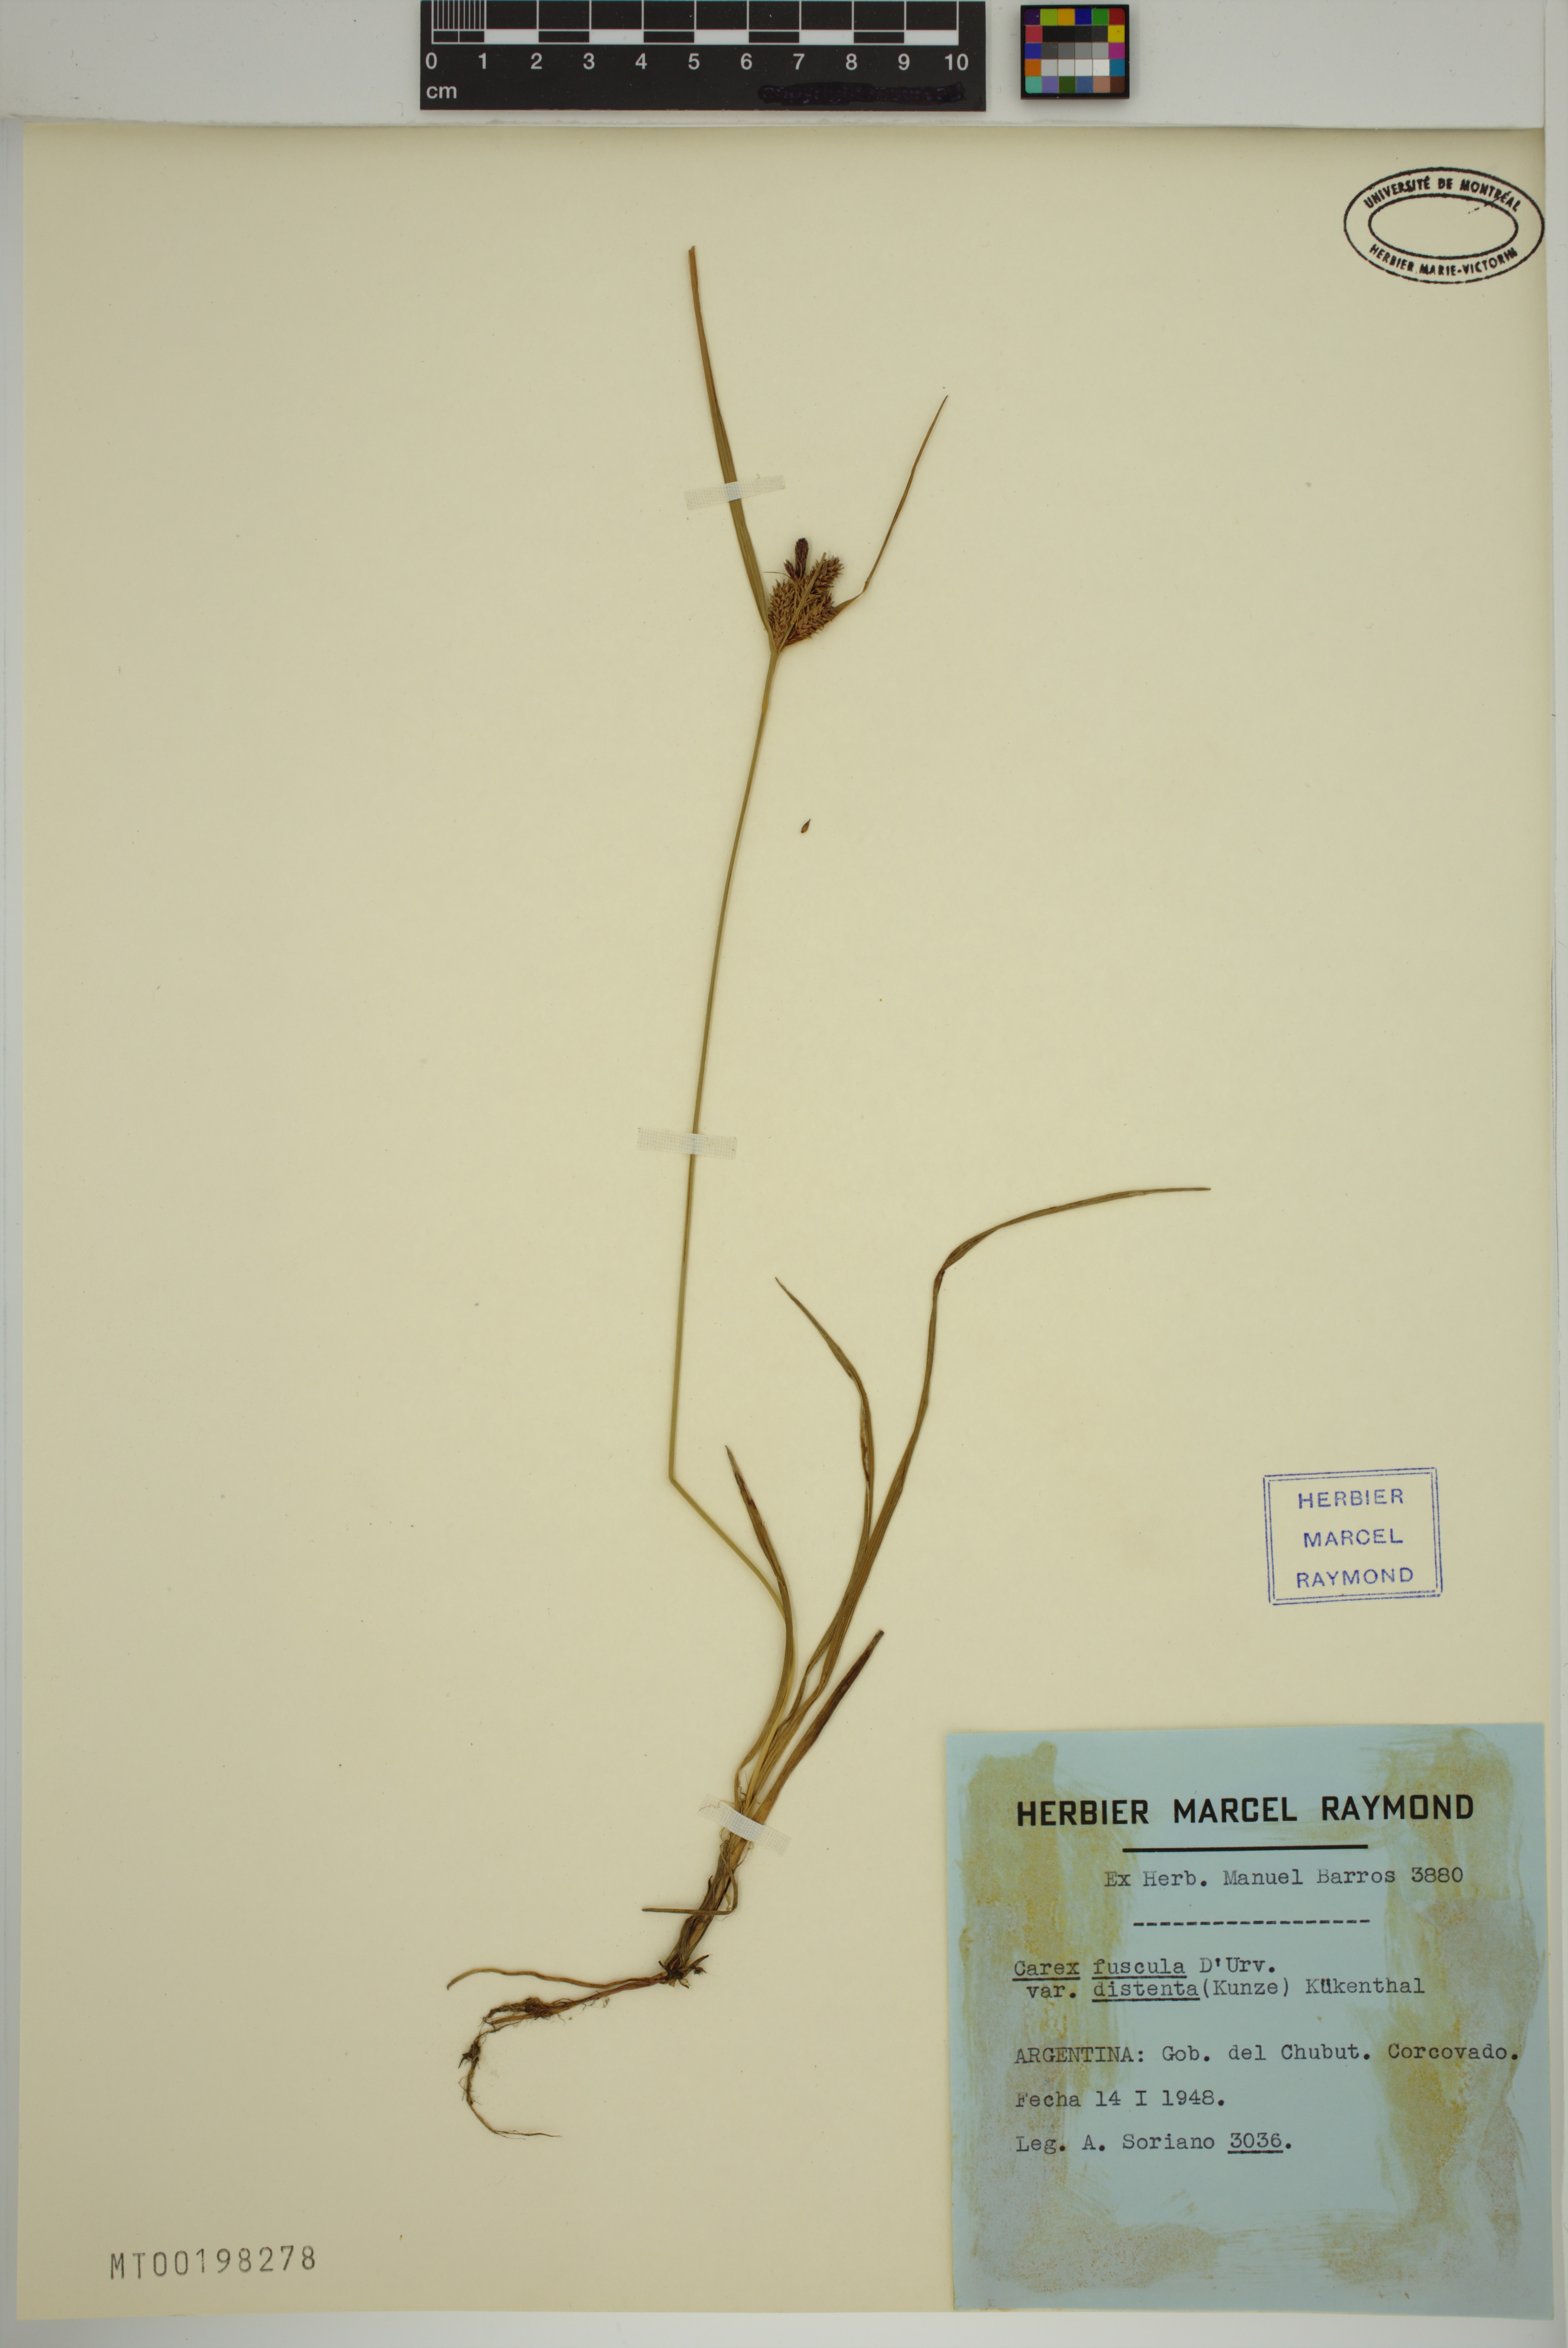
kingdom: Plantae
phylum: Tracheophyta
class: Liliopsida
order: Poales
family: Cyperaceae
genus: Carex
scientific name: Carex fuscula
